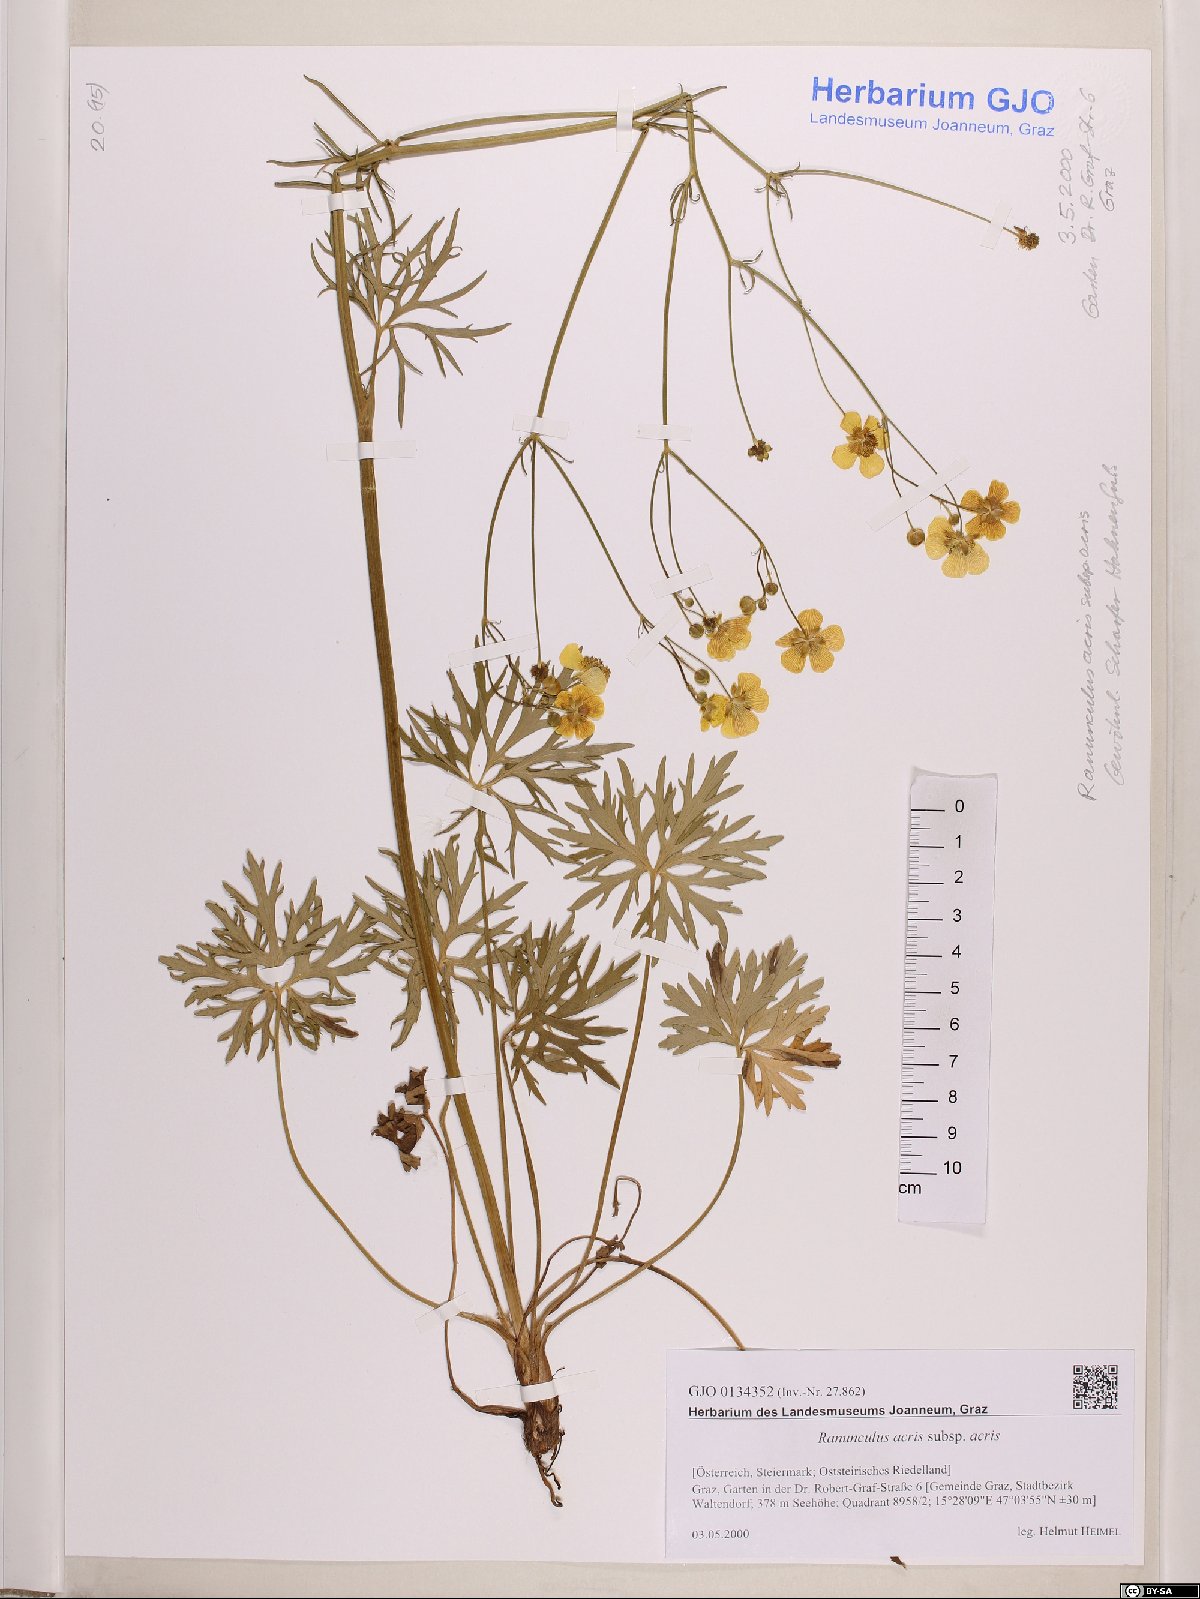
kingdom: Plantae
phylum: Tracheophyta
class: Magnoliopsida
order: Ranunculales
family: Ranunculaceae
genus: Ranunculus
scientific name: Ranunculus acris
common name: Meadow buttercup
